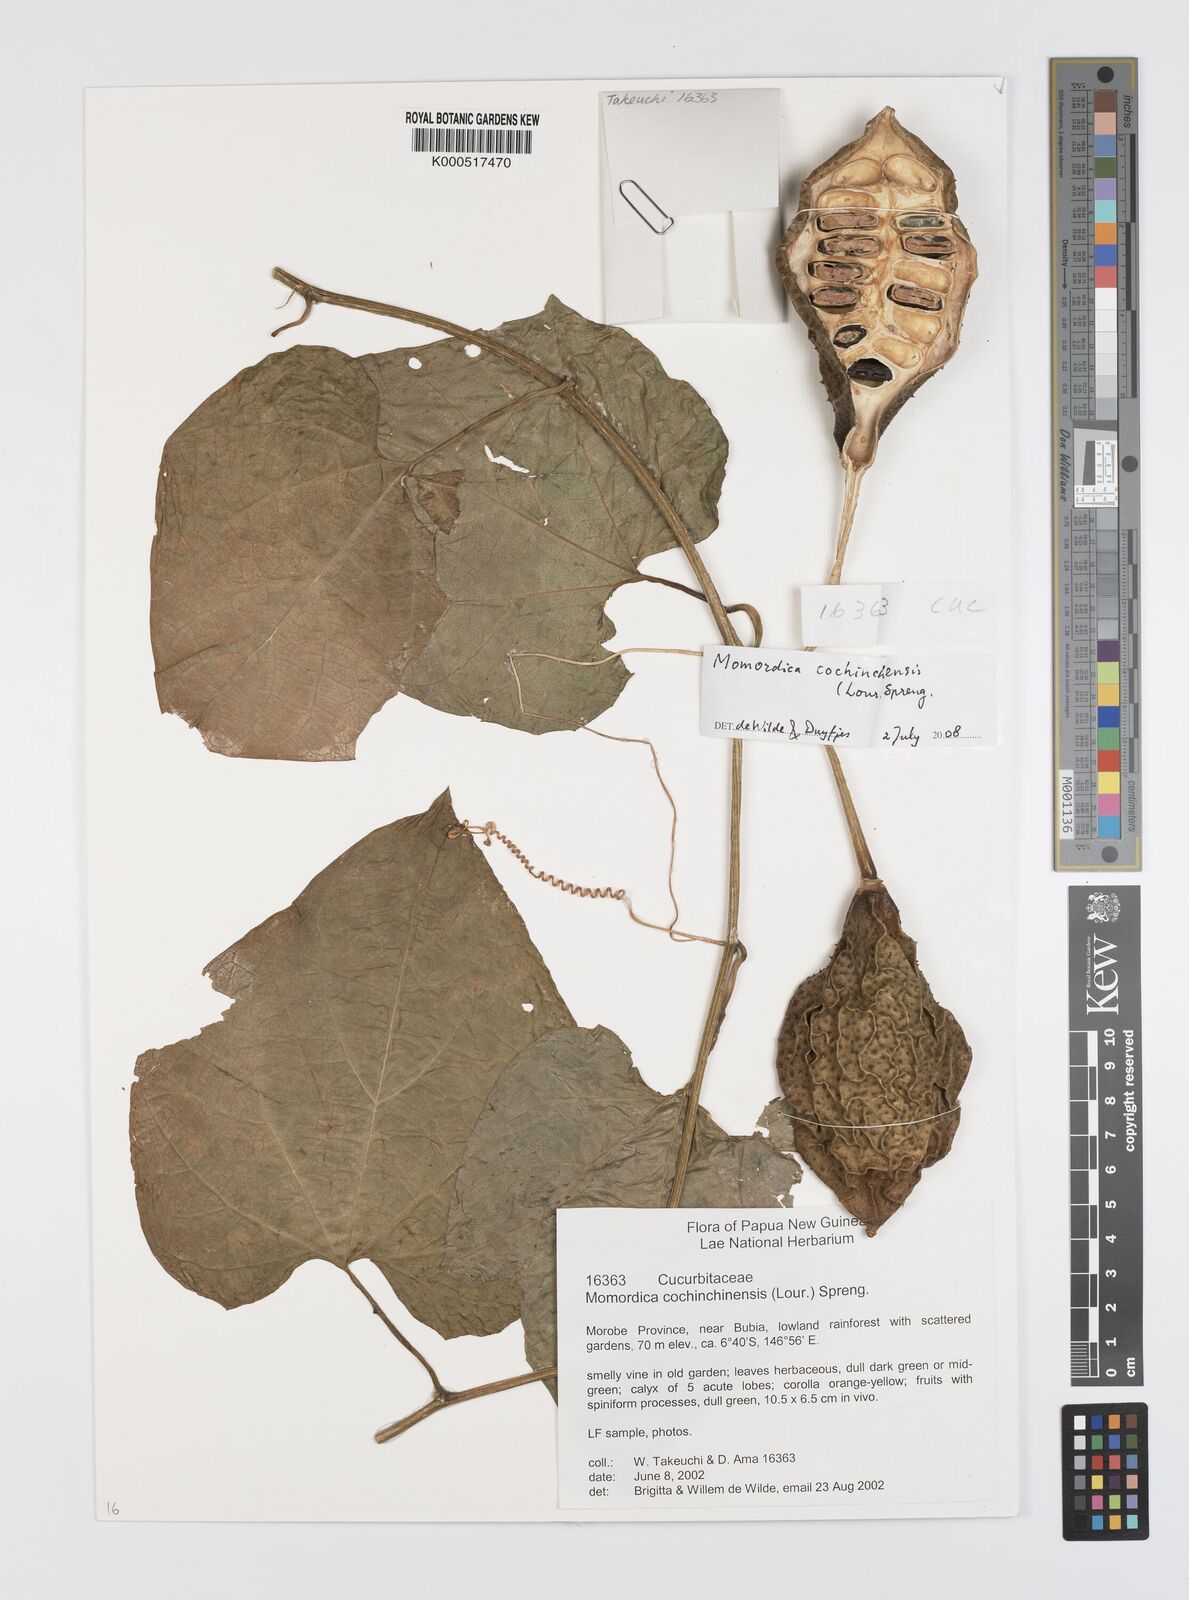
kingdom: Plantae
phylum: Tracheophyta
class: Magnoliopsida
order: Cucurbitales
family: Cucurbitaceae
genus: Momordica
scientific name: Momordica cochinchinensis
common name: Chinese bitter-cucumber
